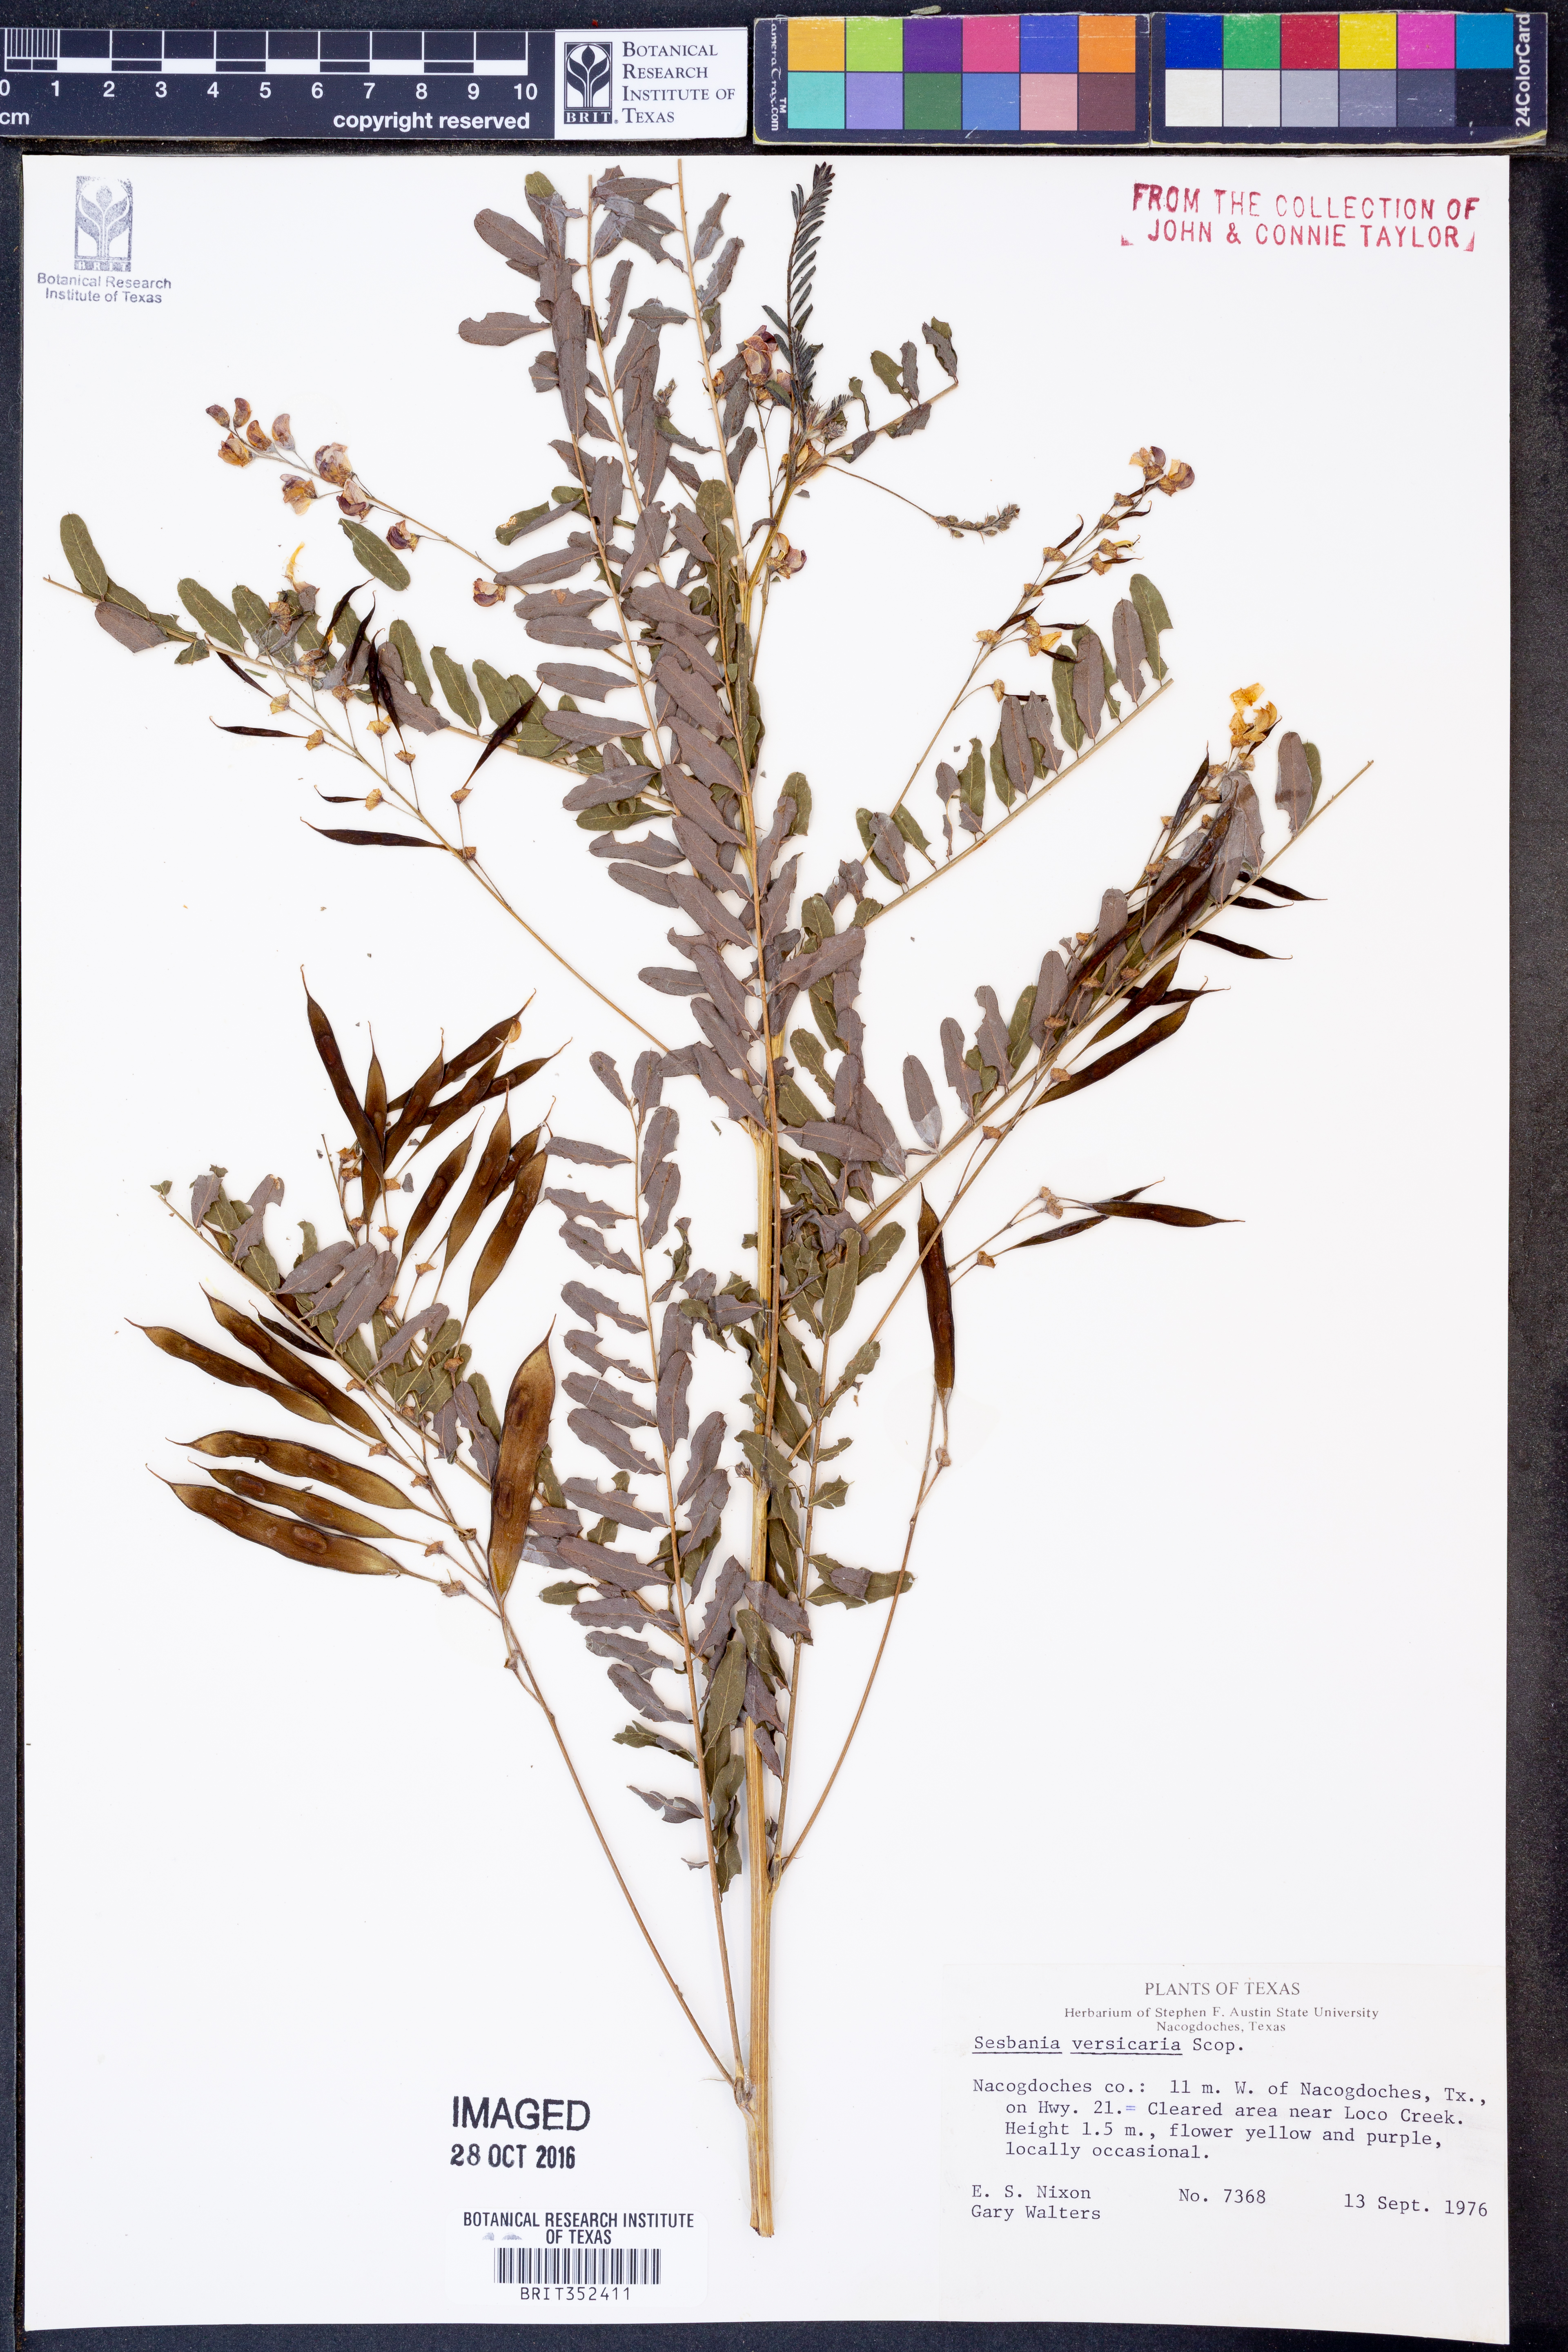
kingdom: Plantae
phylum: Tracheophyta
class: Magnoliopsida
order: Fabales
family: Fabaceae
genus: Sesbania
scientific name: Sesbania vesicaria
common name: Bagpod
